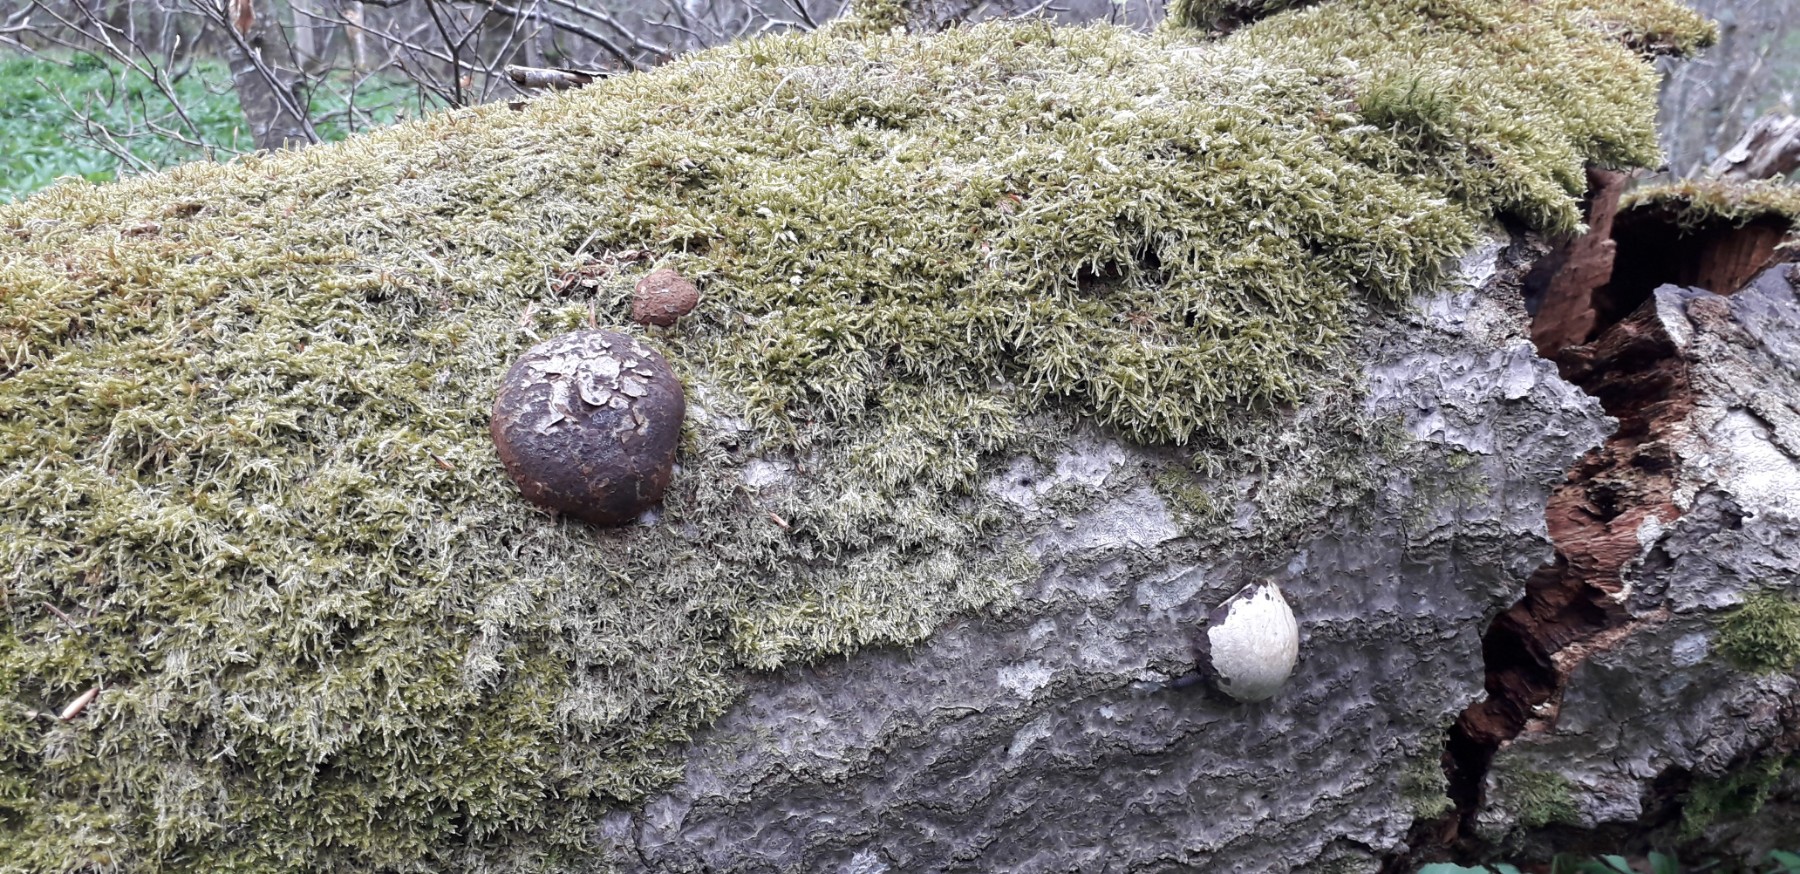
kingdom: Protozoa
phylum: Mycetozoa
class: Myxomycetes
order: Cribrariales
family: Tubiferaceae
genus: Reticularia
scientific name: Reticularia lycoperdon
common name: skinnende støvpude
